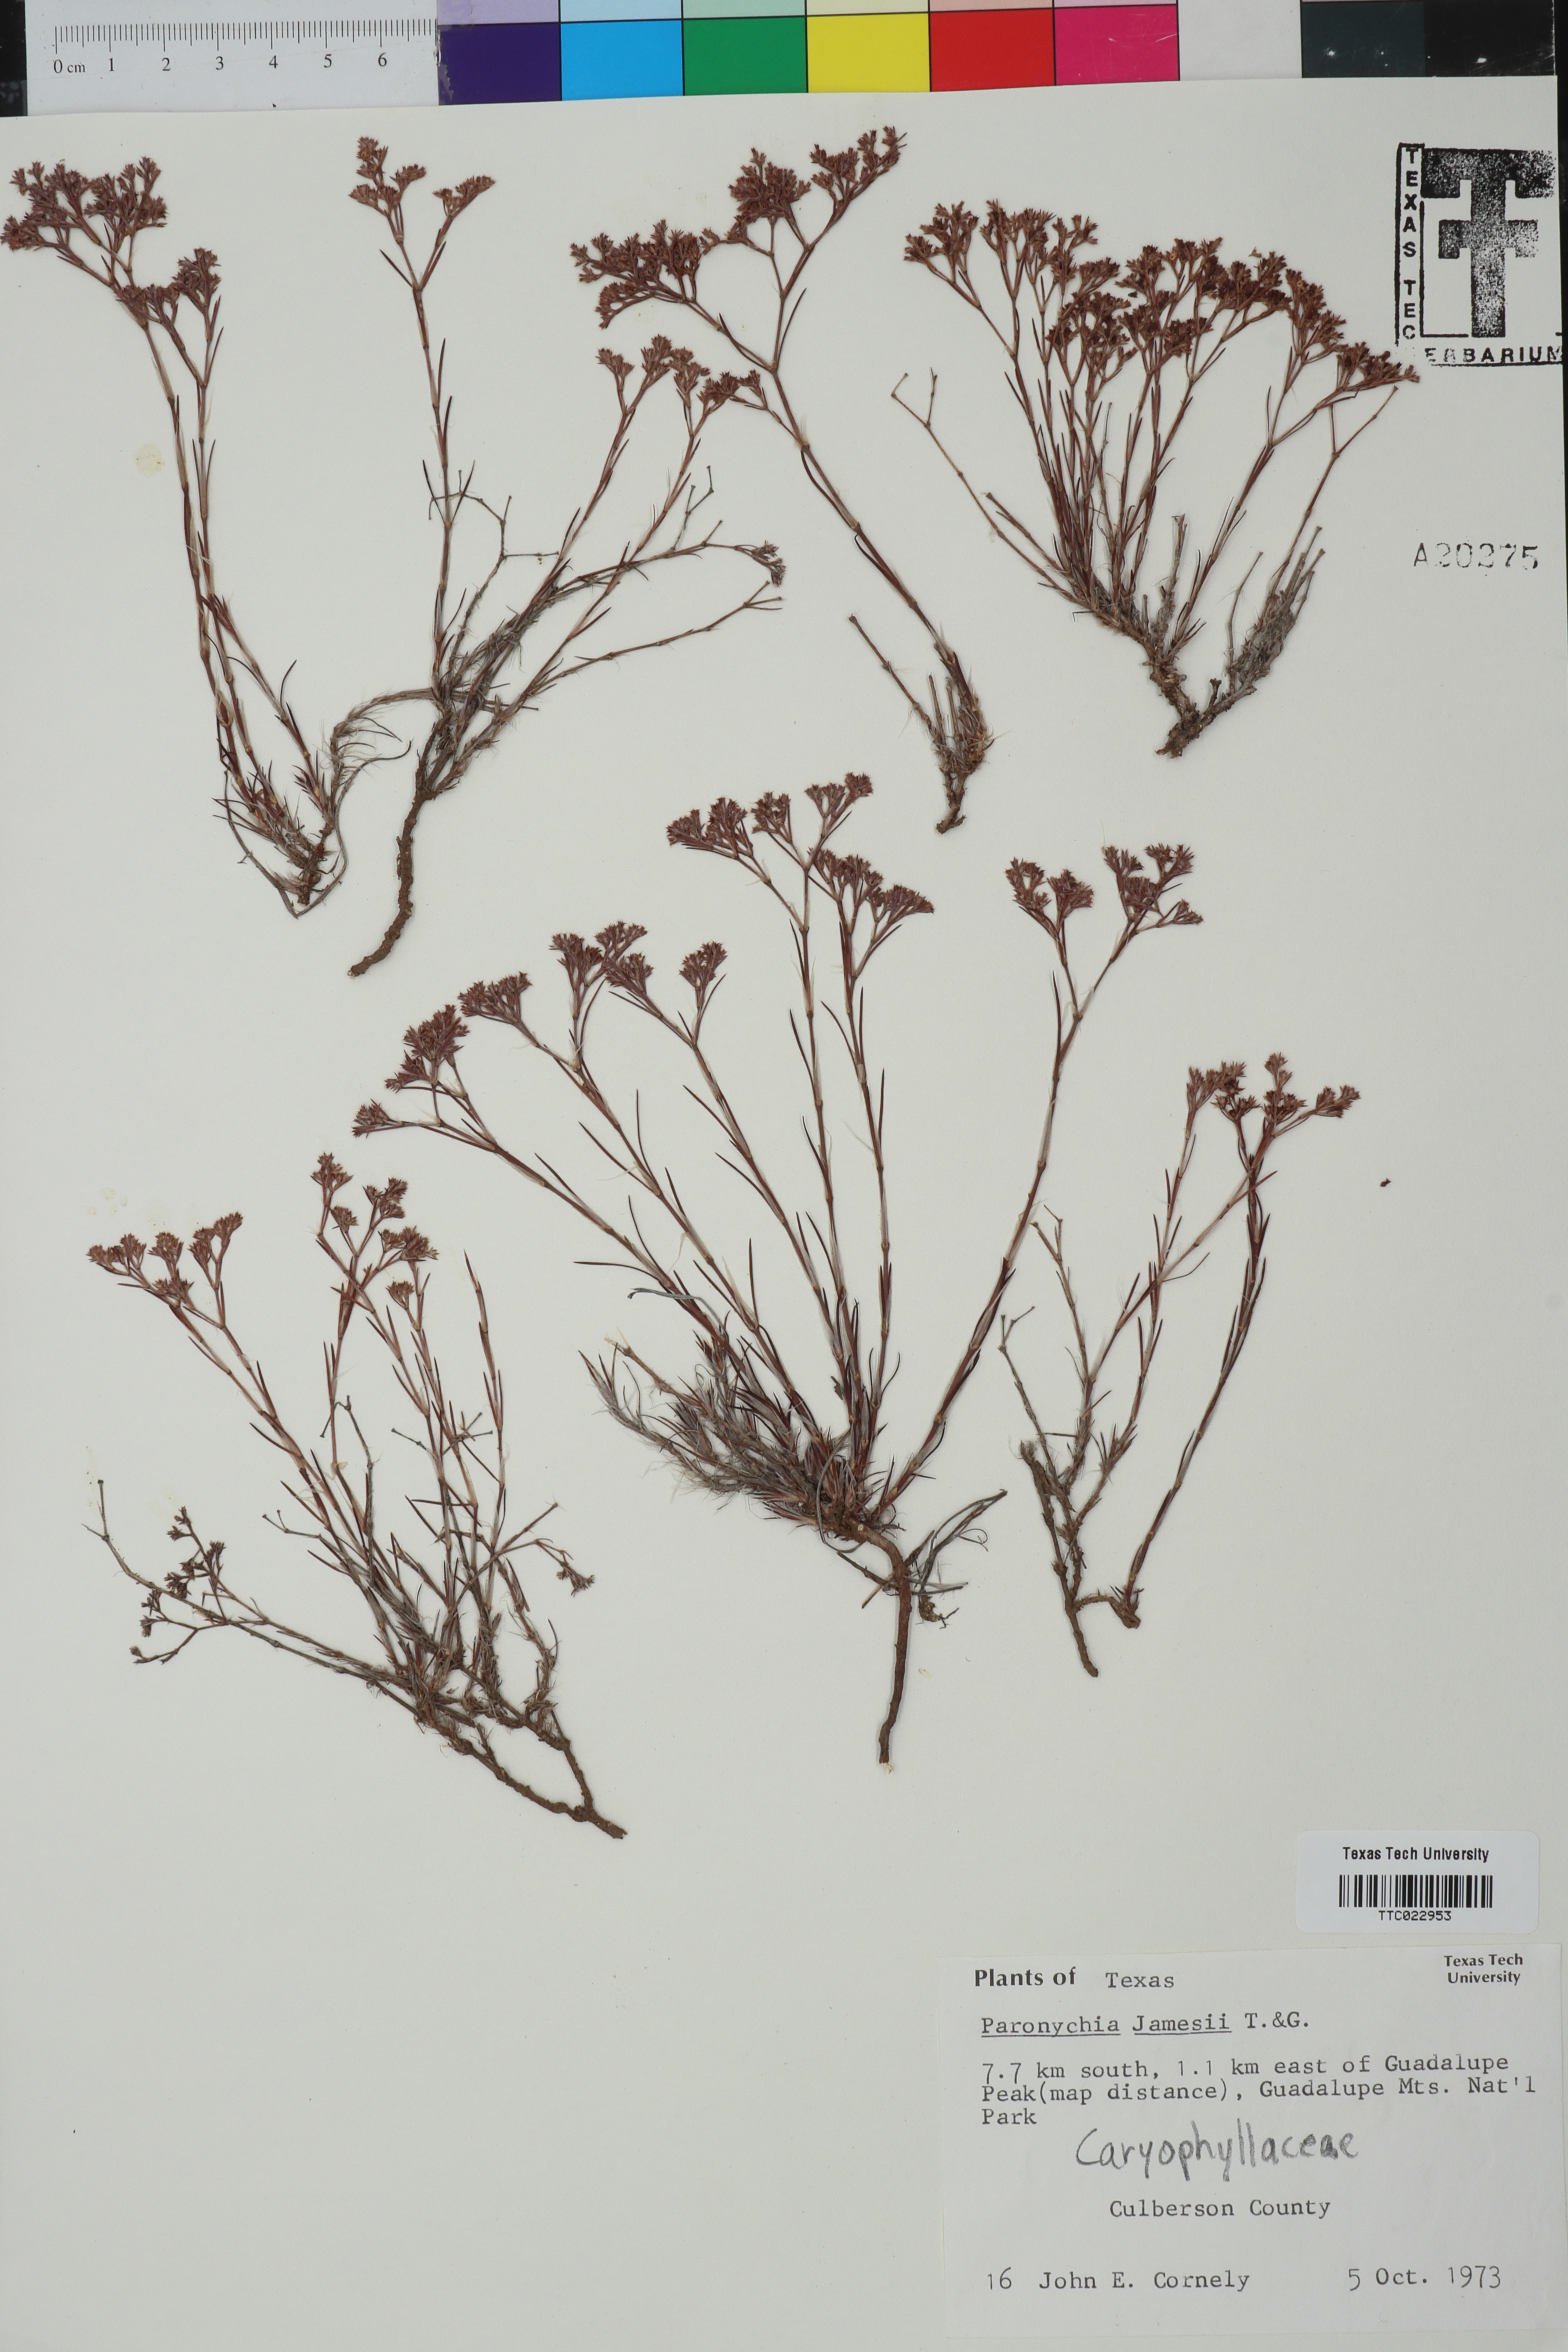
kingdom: Plantae
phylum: Tracheophyta
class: Magnoliopsida
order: Caryophyllales
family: Caryophyllaceae
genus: Paronychia
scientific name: Paronychia jamesii
